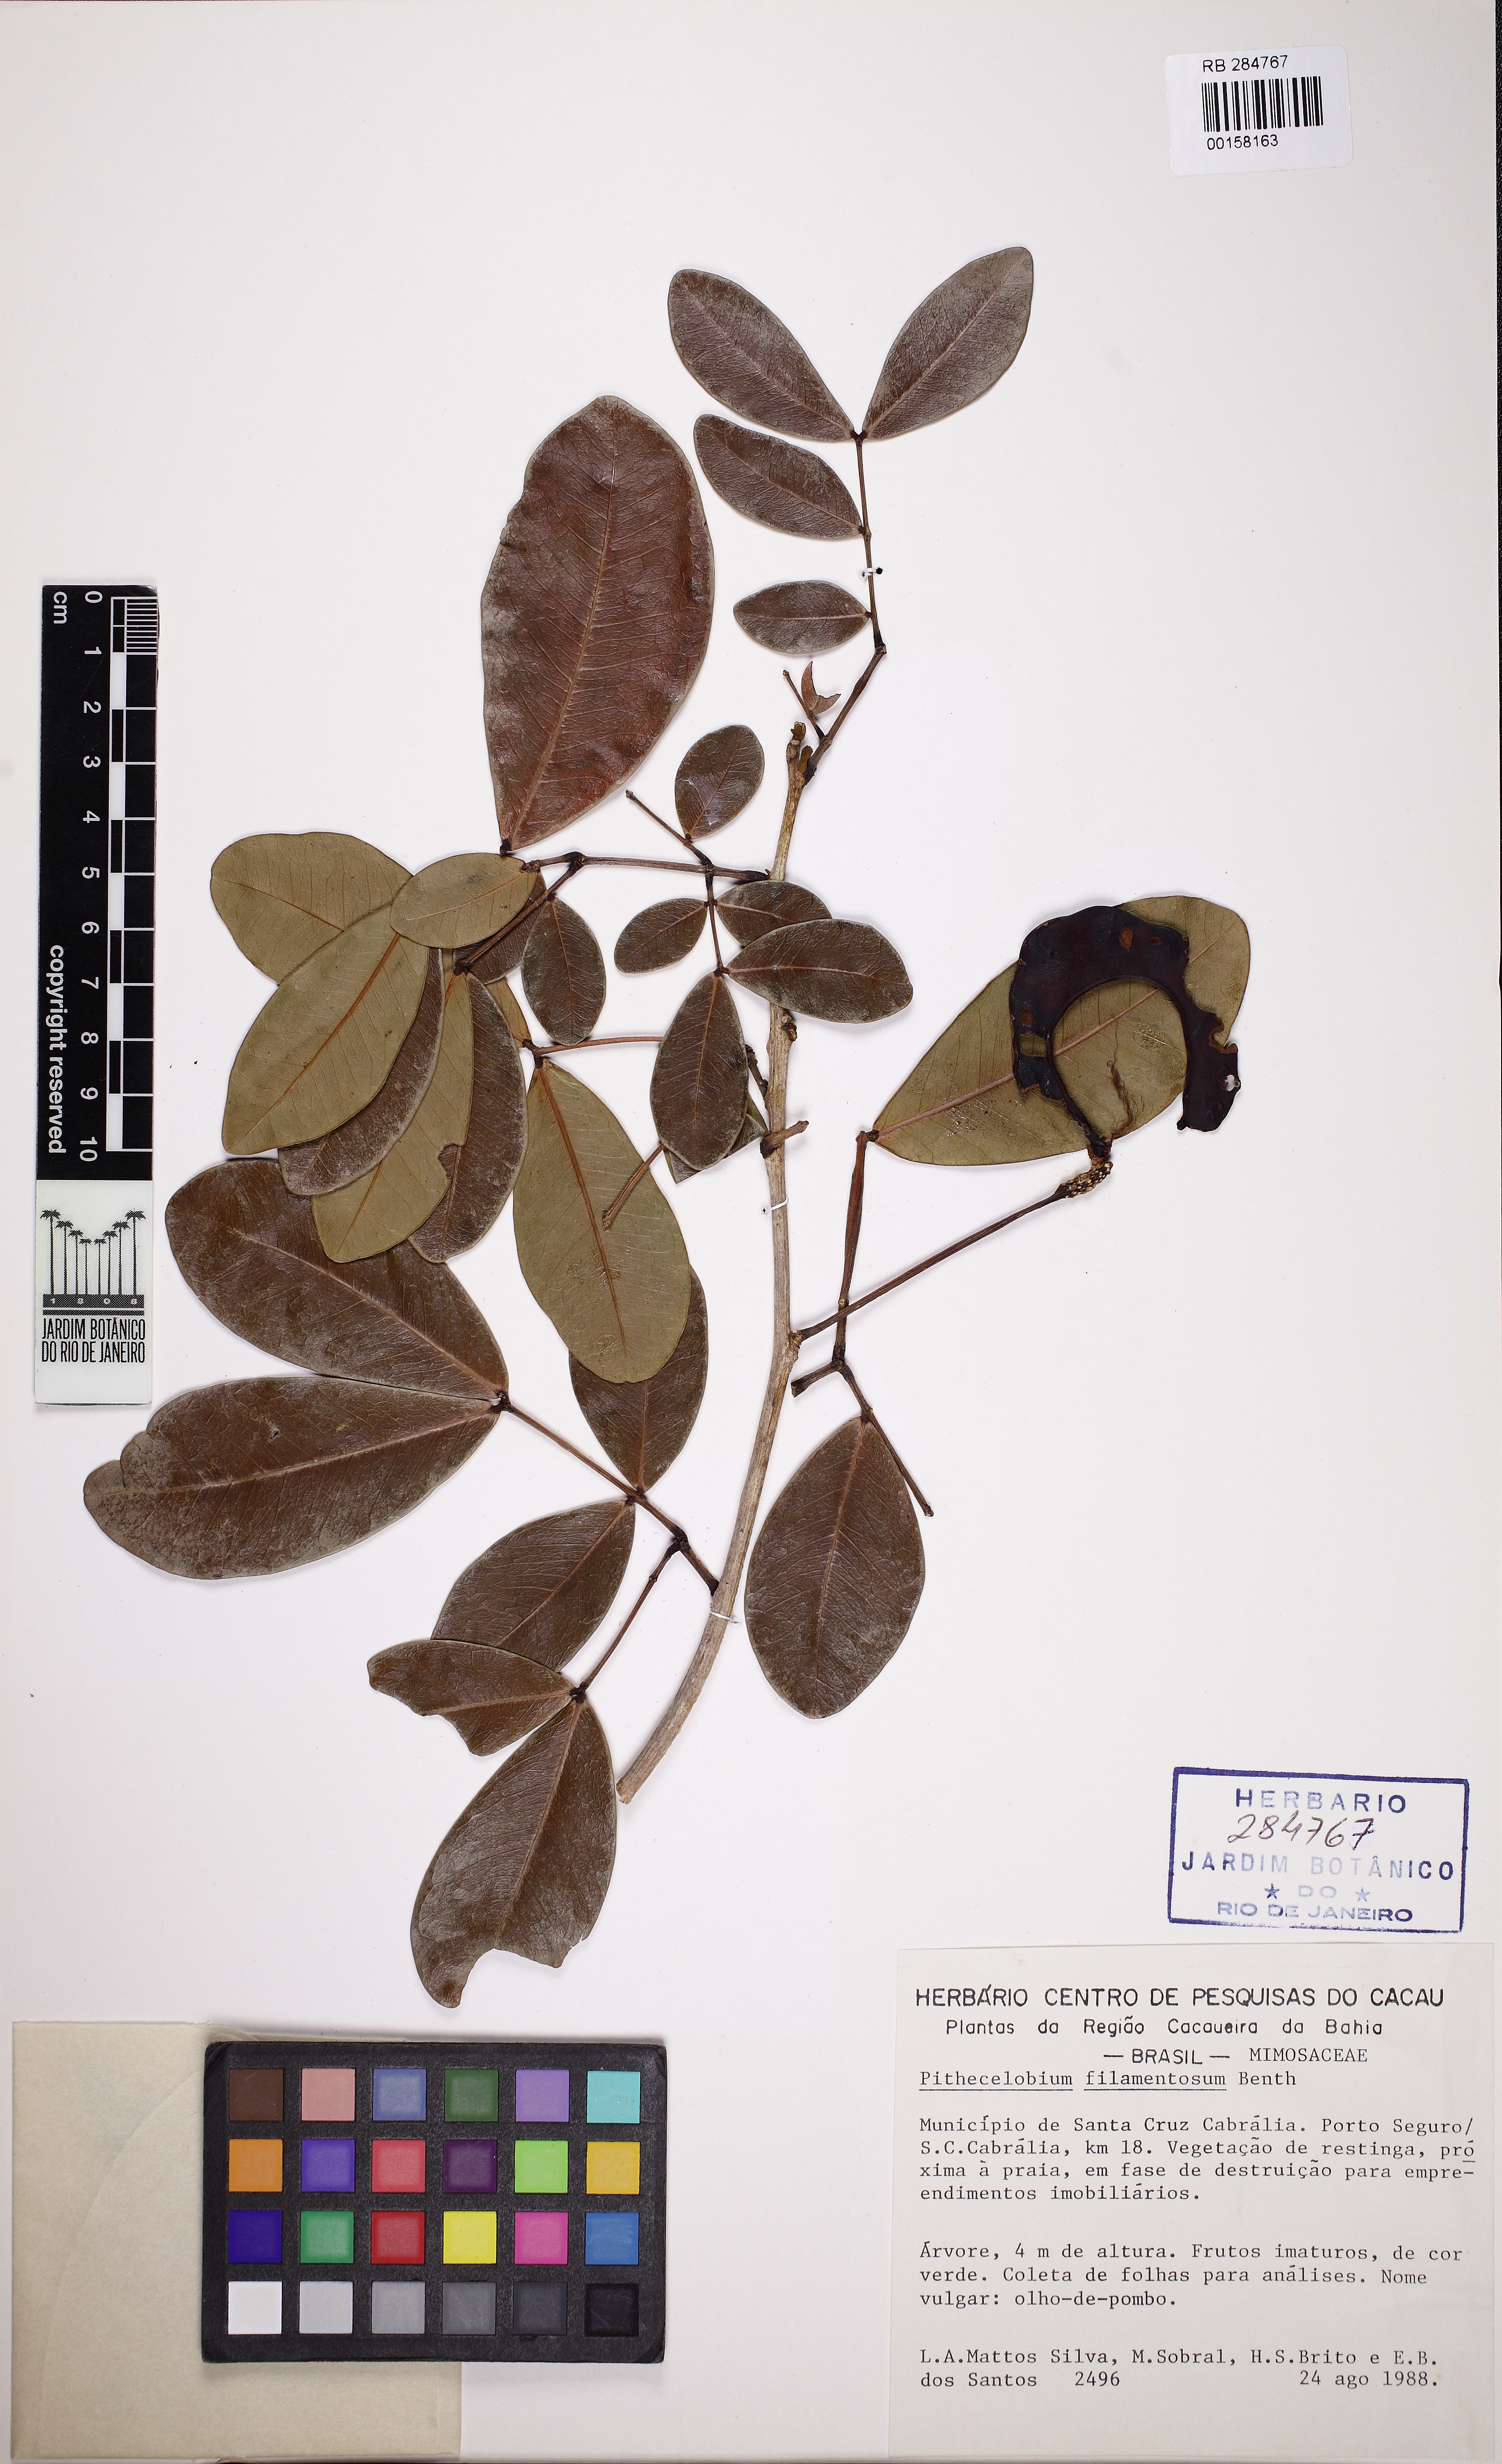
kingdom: Plantae
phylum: Tracheophyta
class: Magnoliopsida
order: Fabales
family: Fabaceae
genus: Chloroleucon
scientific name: Chloroleucon foliolosum
